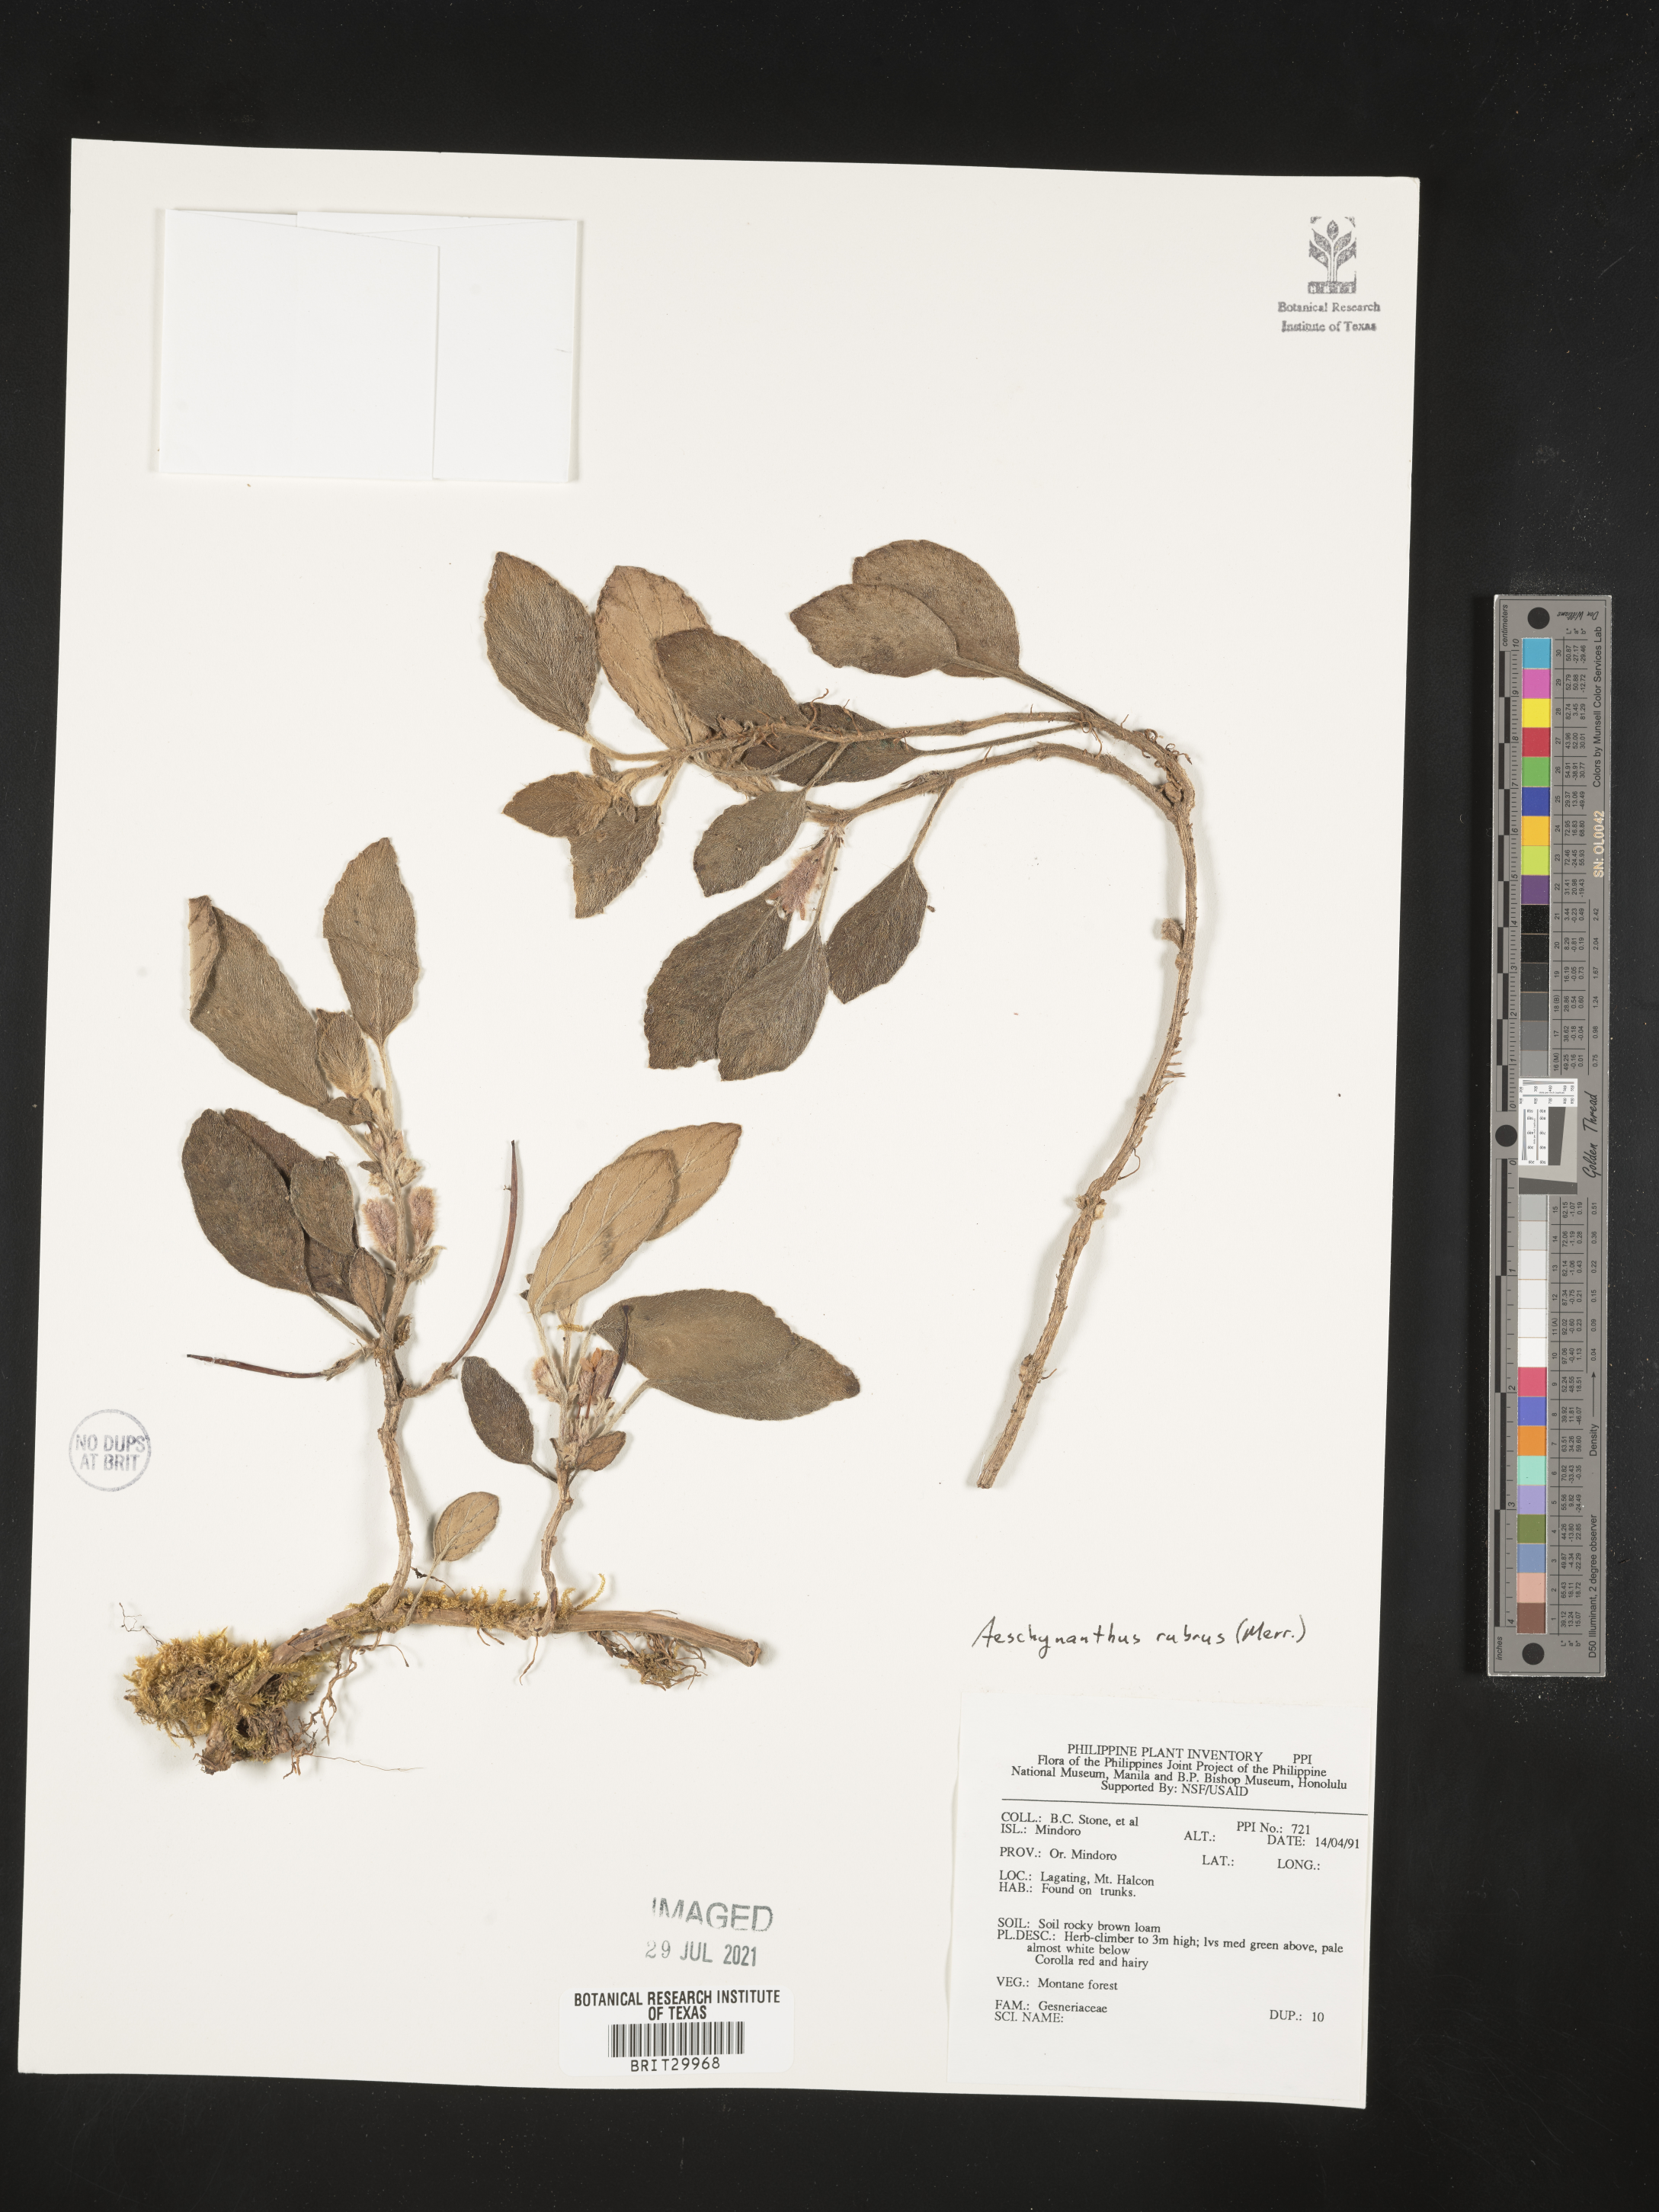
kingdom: Plantae
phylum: Tracheophyta
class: Magnoliopsida
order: Lamiales
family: Gesneriaceae
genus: Aeschynanthus
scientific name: Aeschynanthus
